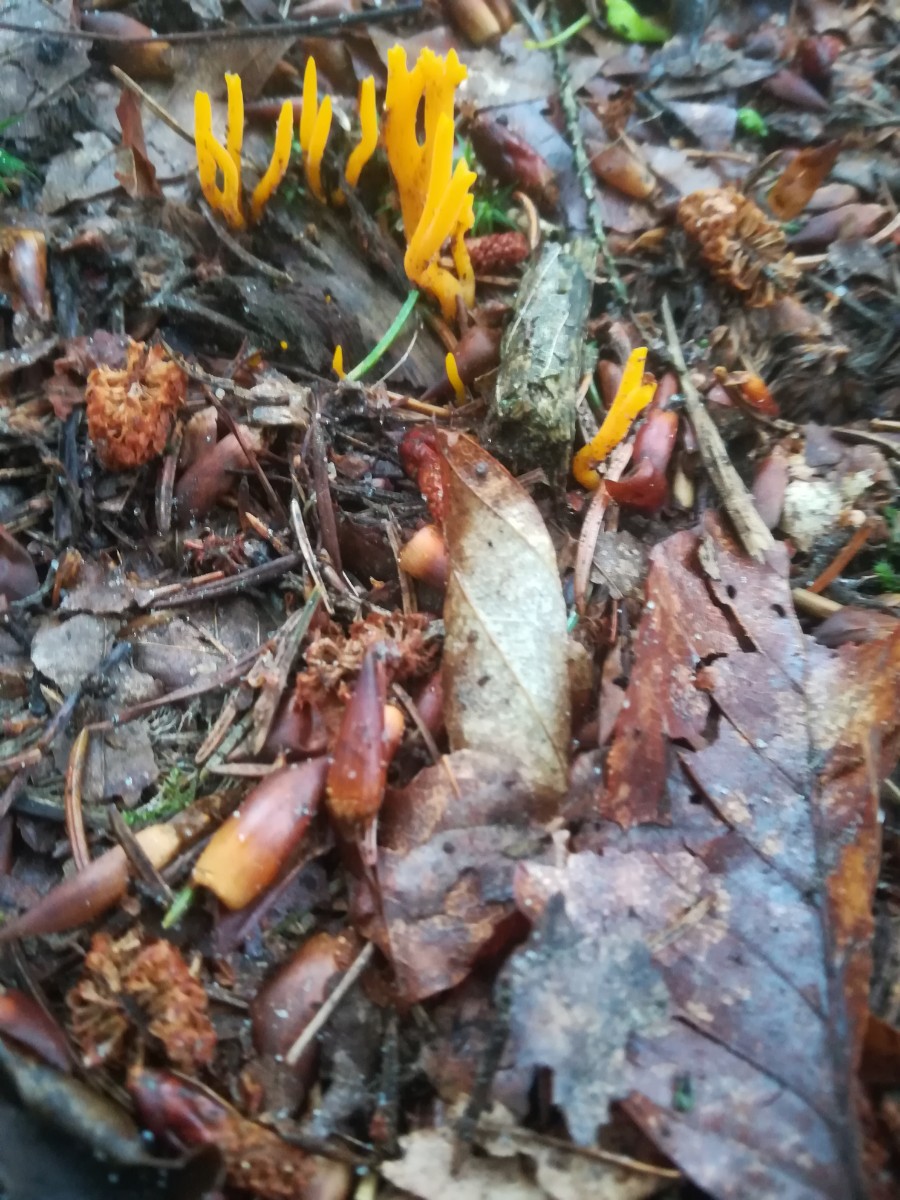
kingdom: Fungi
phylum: Basidiomycota
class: Dacrymycetes
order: Dacrymycetales
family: Dacrymycetaceae
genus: Calocera
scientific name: Calocera viscosa
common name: almindelig guldgaffel
